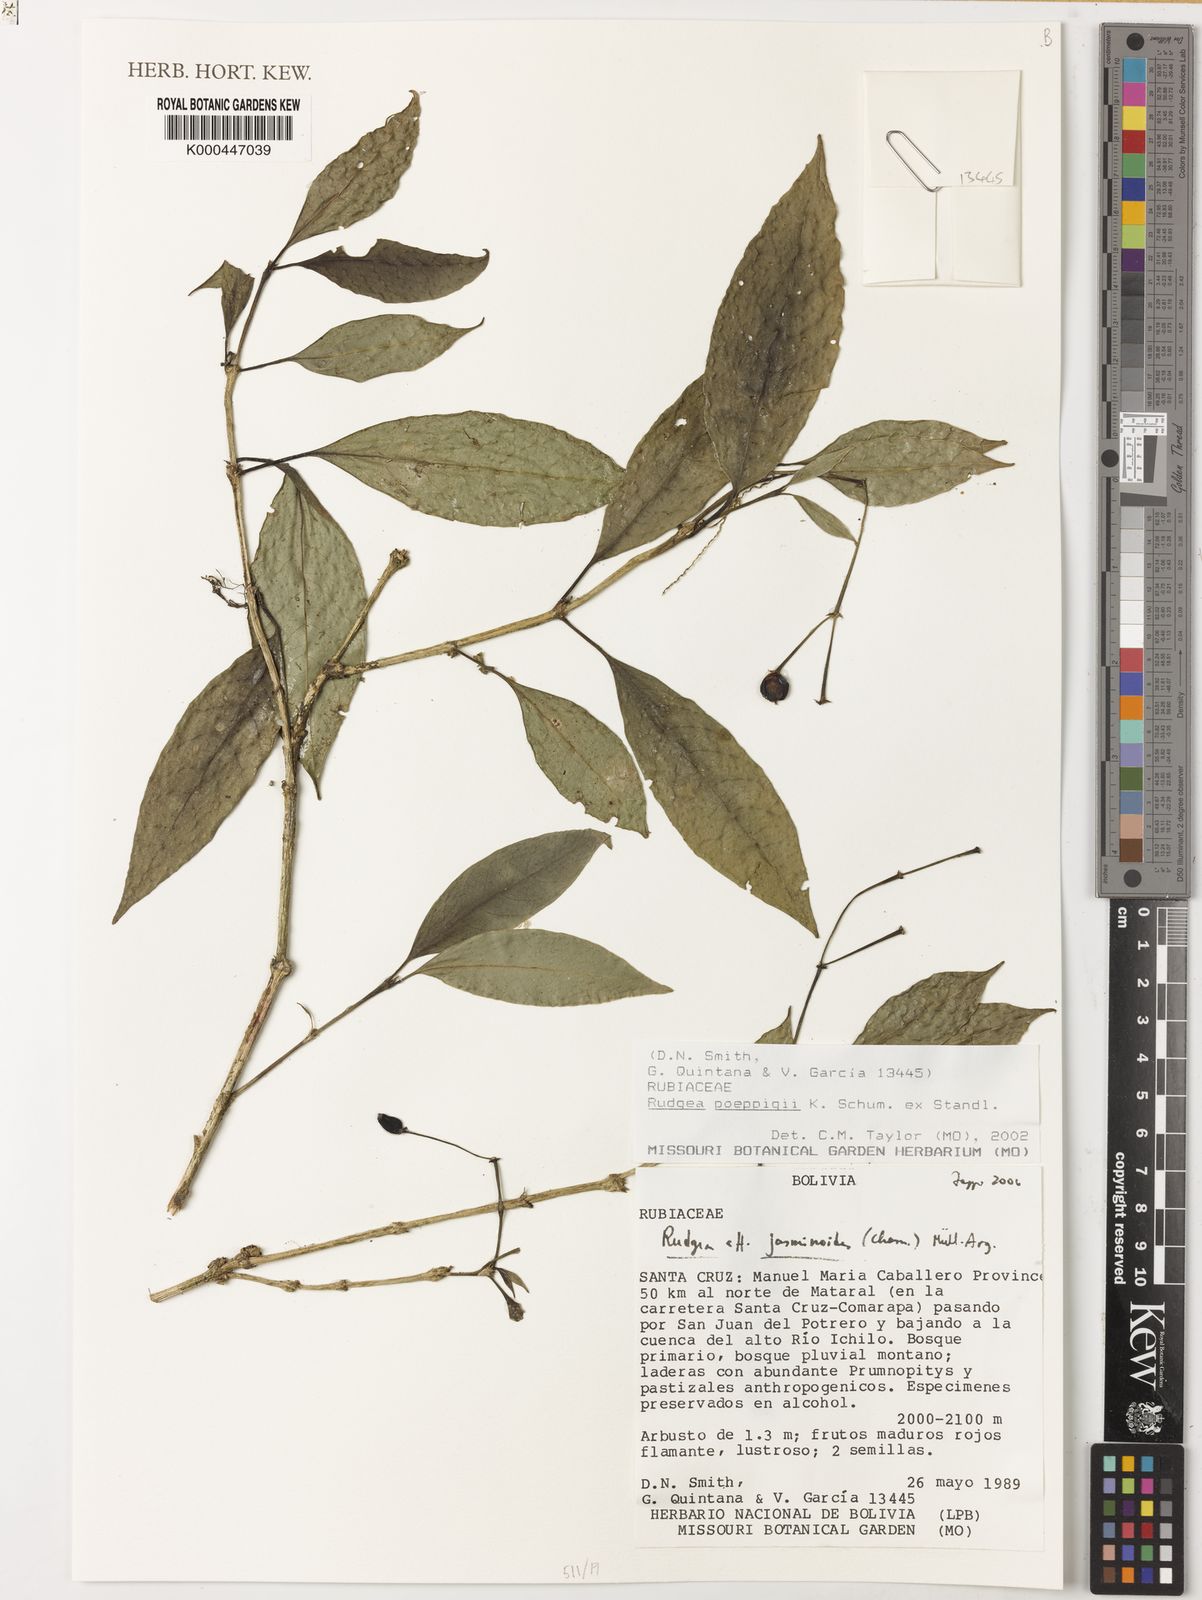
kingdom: Plantae
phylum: Tracheophyta
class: Magnoliopsida
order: Gentianales
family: Rubiaceae
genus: Rudgea
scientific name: Rudgea jasminoides
